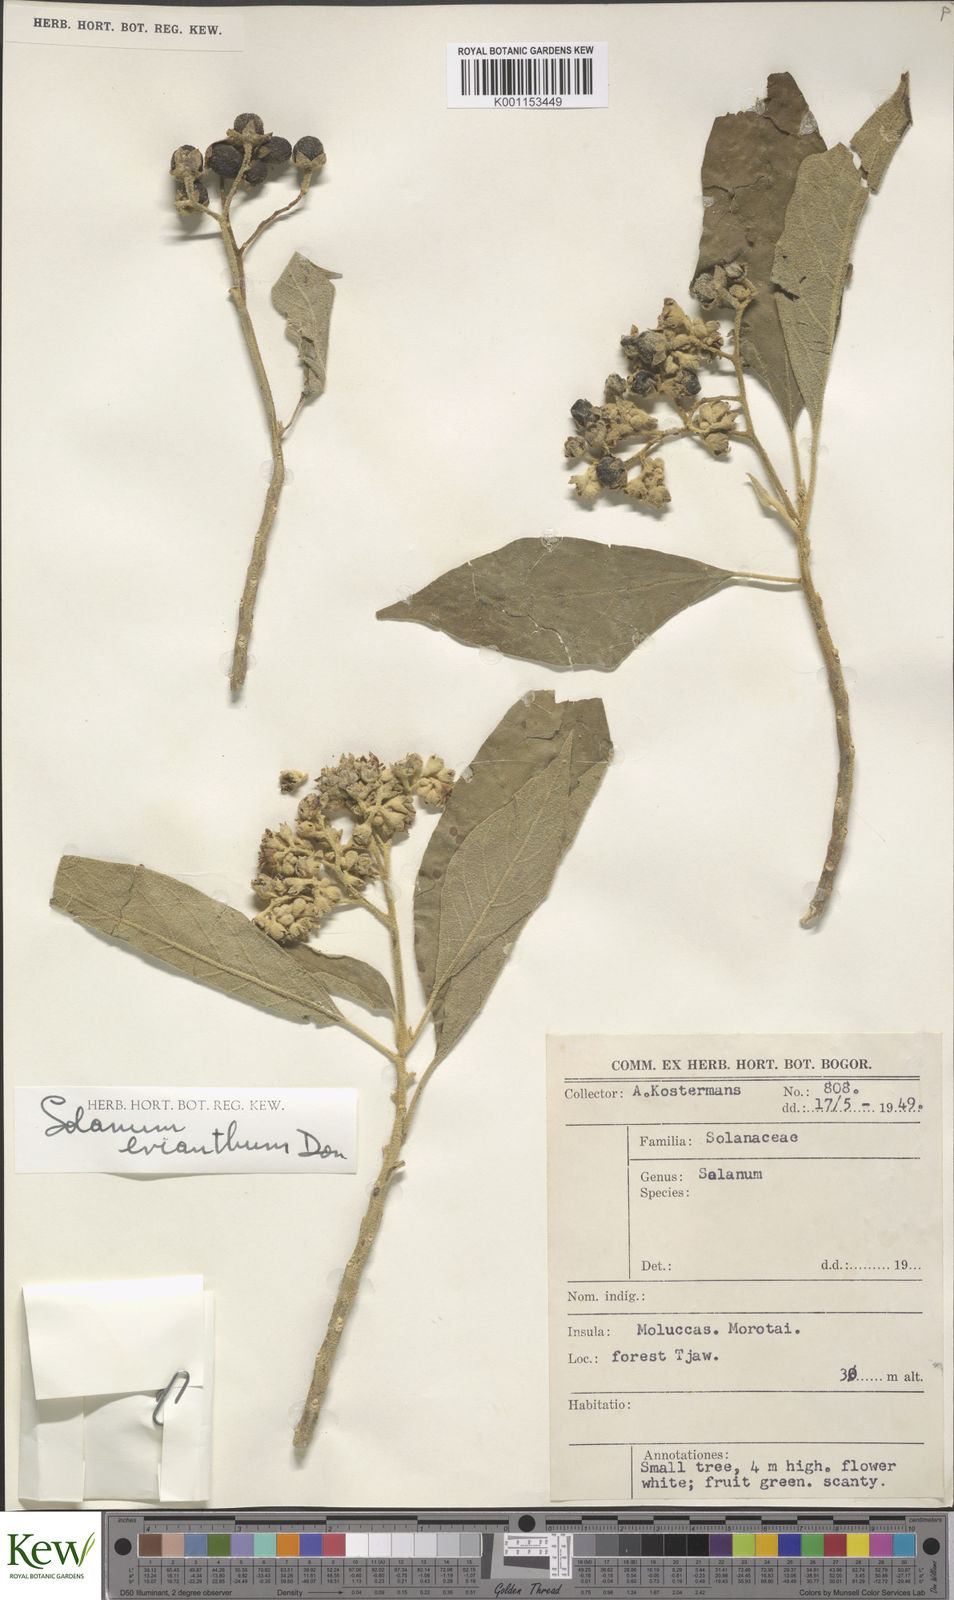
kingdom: Plantae
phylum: Tracheophyta
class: Magnoliopsida
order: Solanales
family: Solanaceae
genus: Solanum
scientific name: Solanum erianthum
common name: Tobacco-tree
